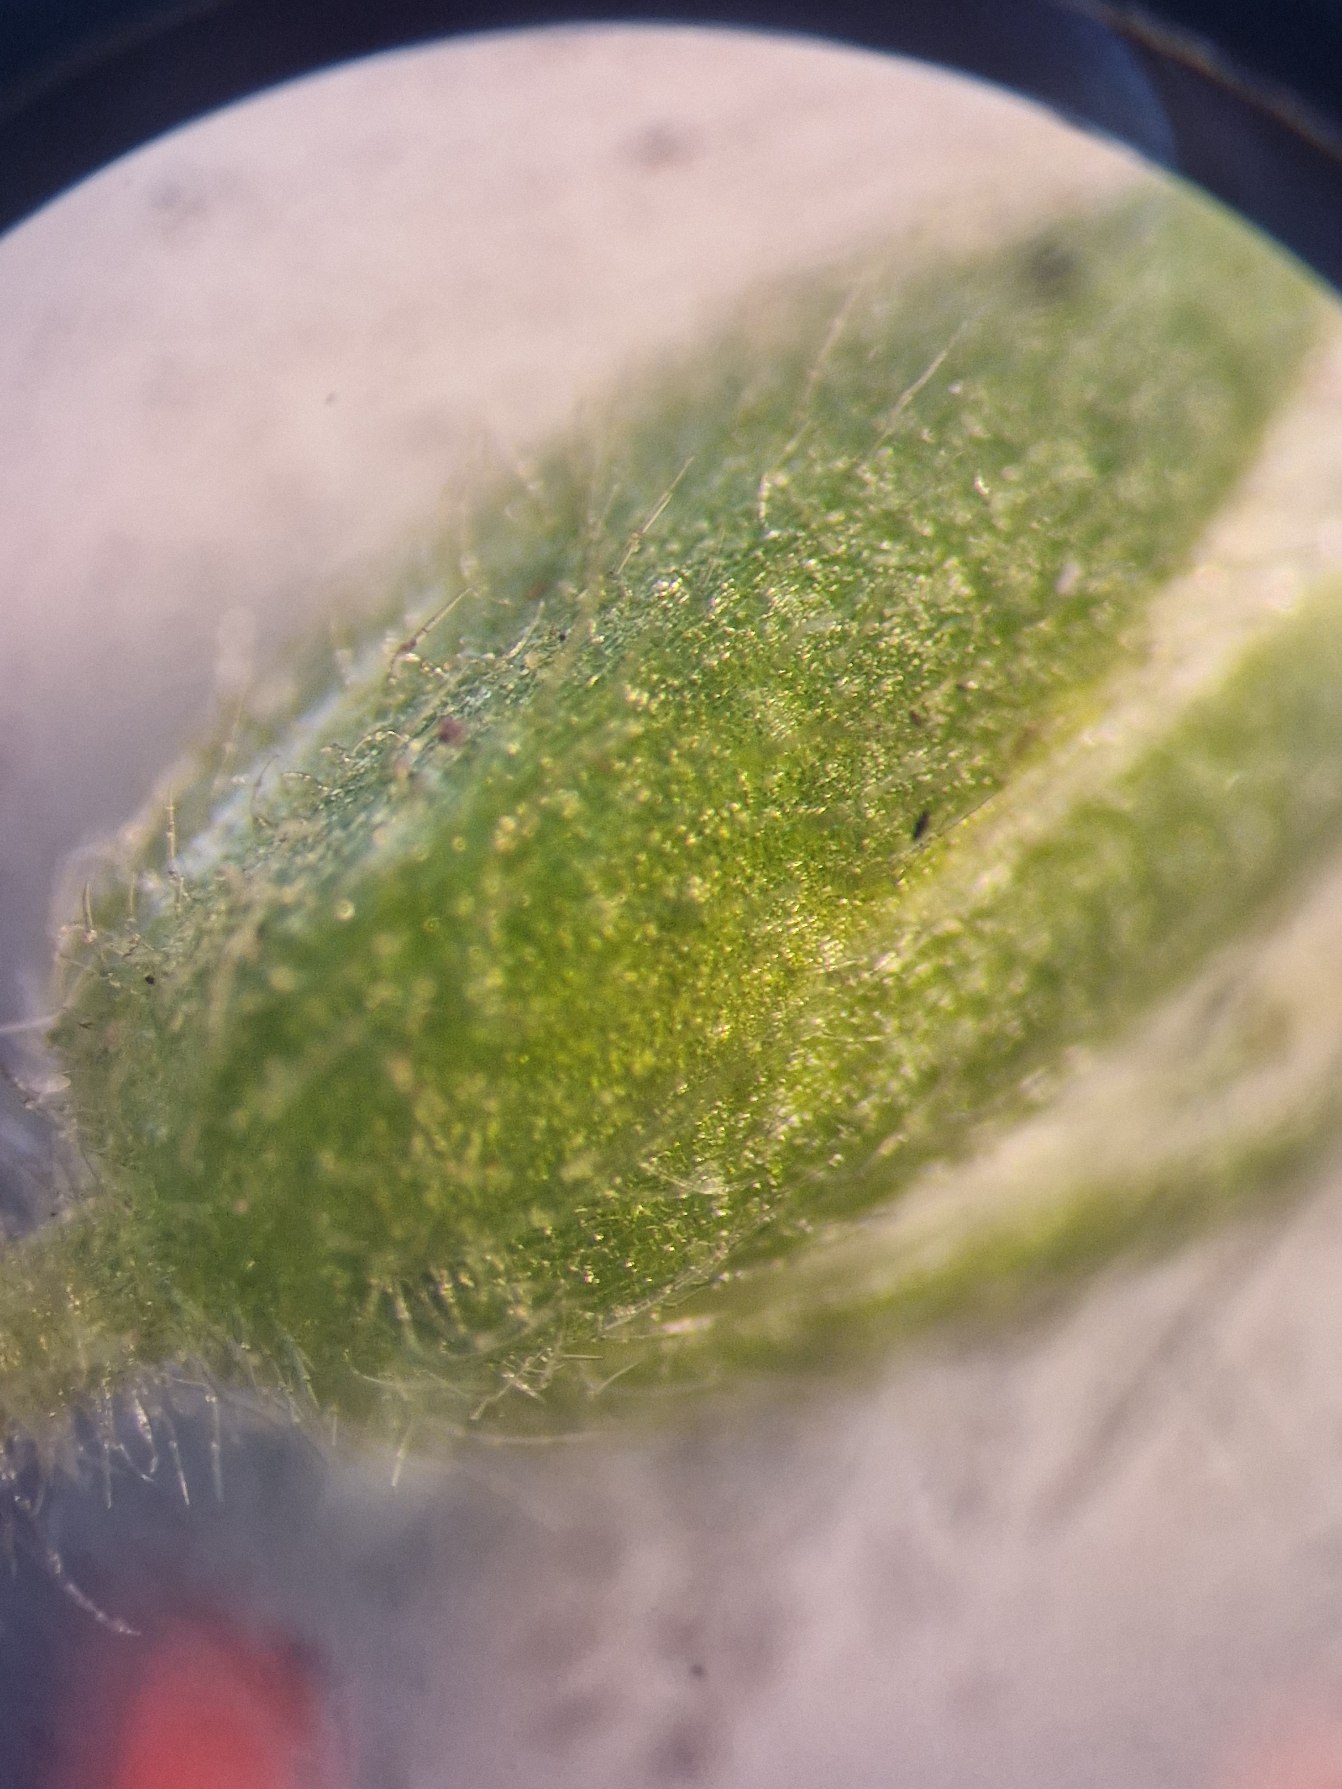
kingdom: Plantae
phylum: Tracheophyta
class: Magnoliopsida
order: Caryophyllales
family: Caryophyllaceae
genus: Cerastium
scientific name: Cerastium fontanum
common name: Almindelig hønsetarm
